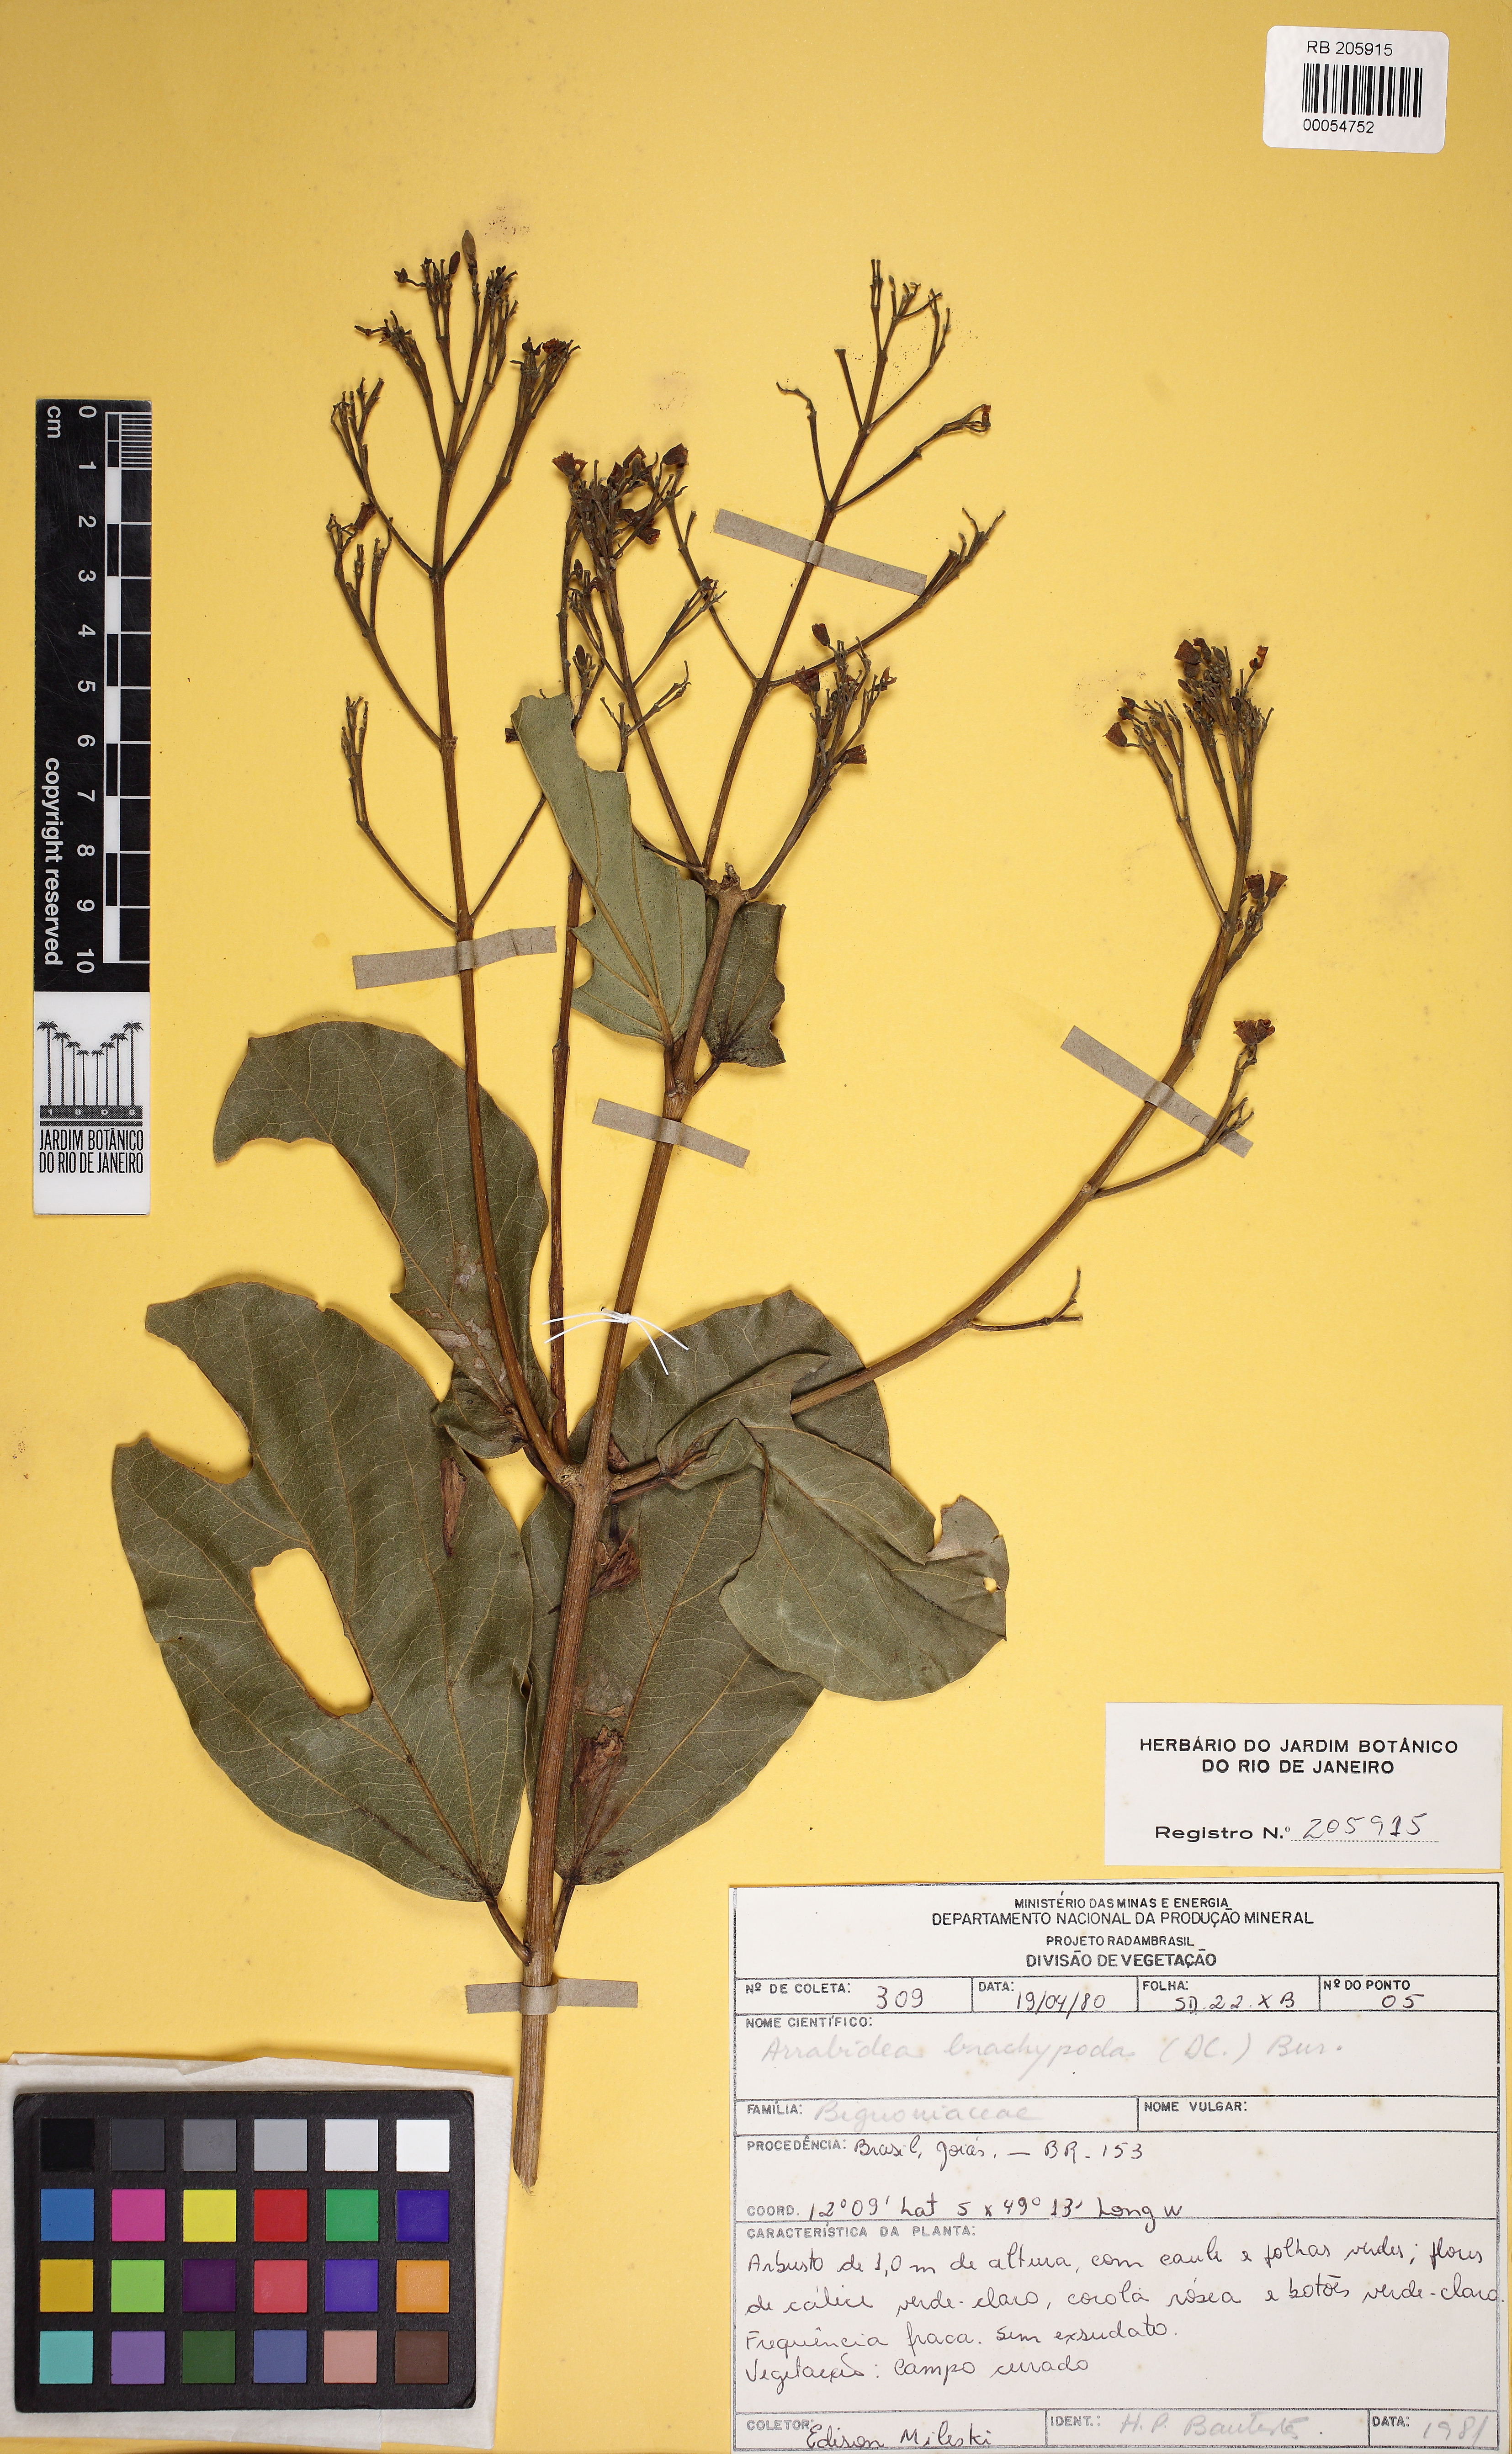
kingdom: Plantae
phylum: Tracheophyta
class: Magnoliopsida
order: Lamiales
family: Bignoniaceae
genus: Fridericia
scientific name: Fridericia platyphylla
